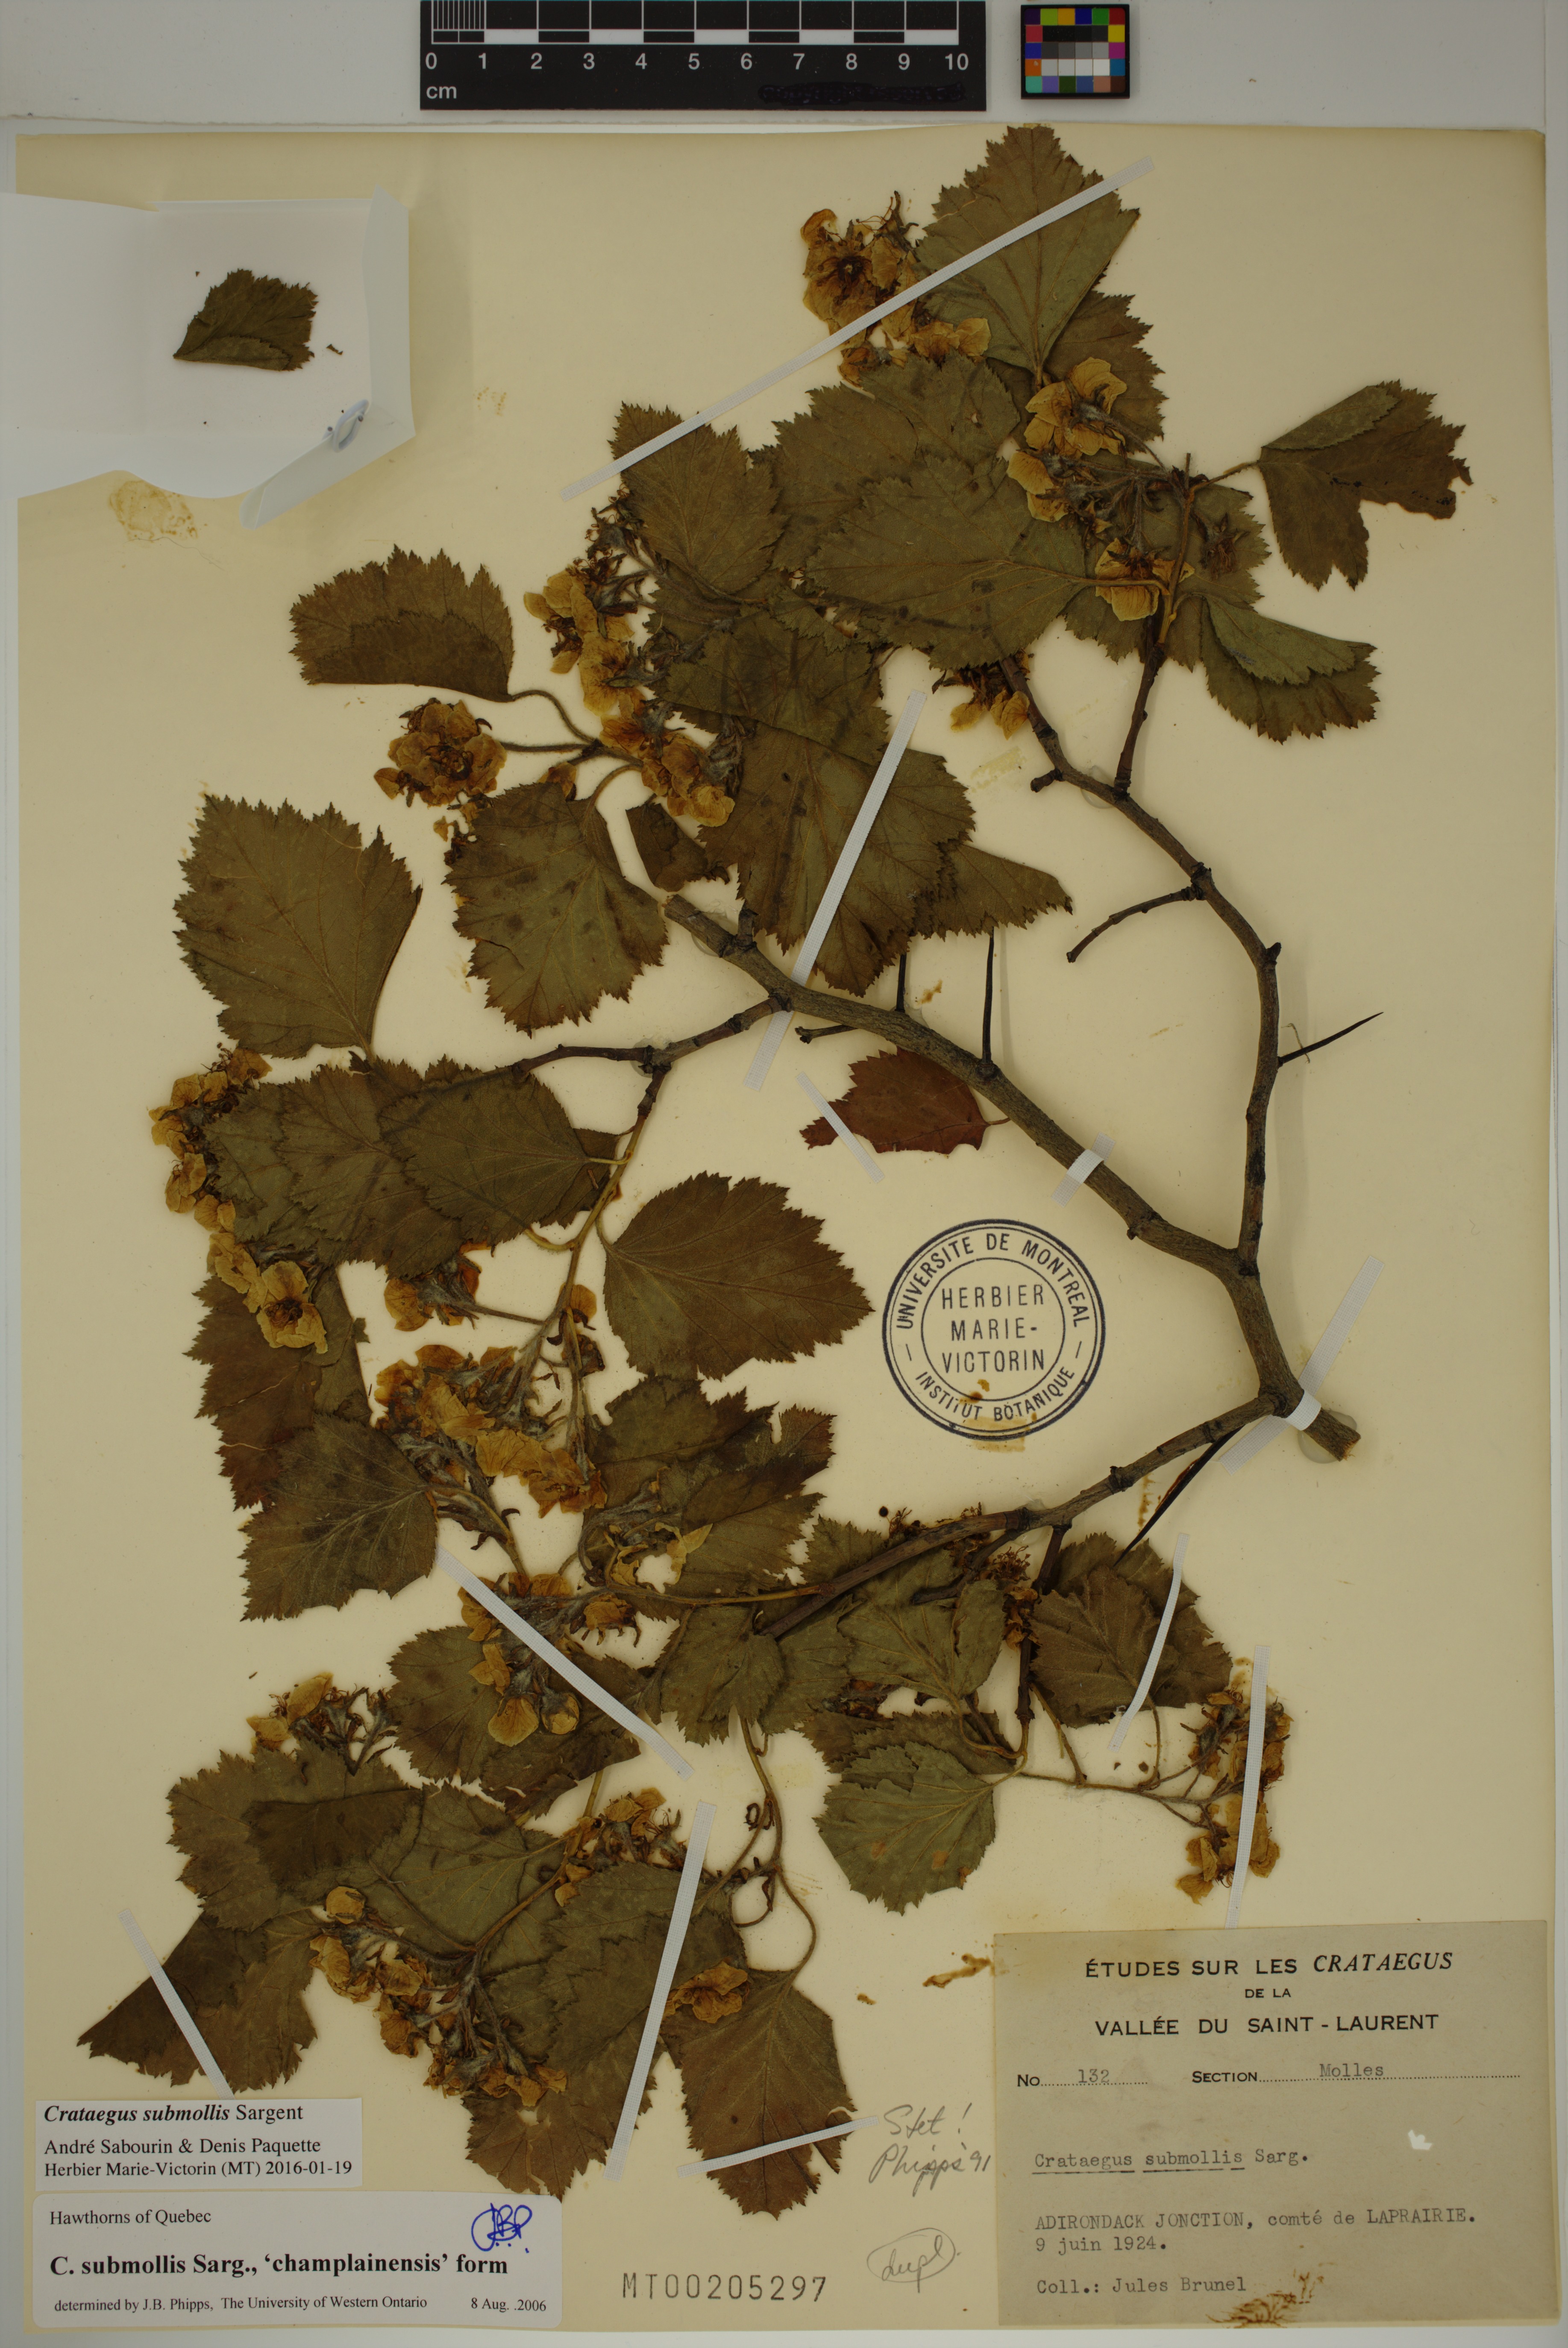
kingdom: Plantae
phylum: Tracheophyta
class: Magnoliopsida
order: Rosales
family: Rosaceae
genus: Crataegus
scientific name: Crataegus submollis
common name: Hairy cockspurthorn
